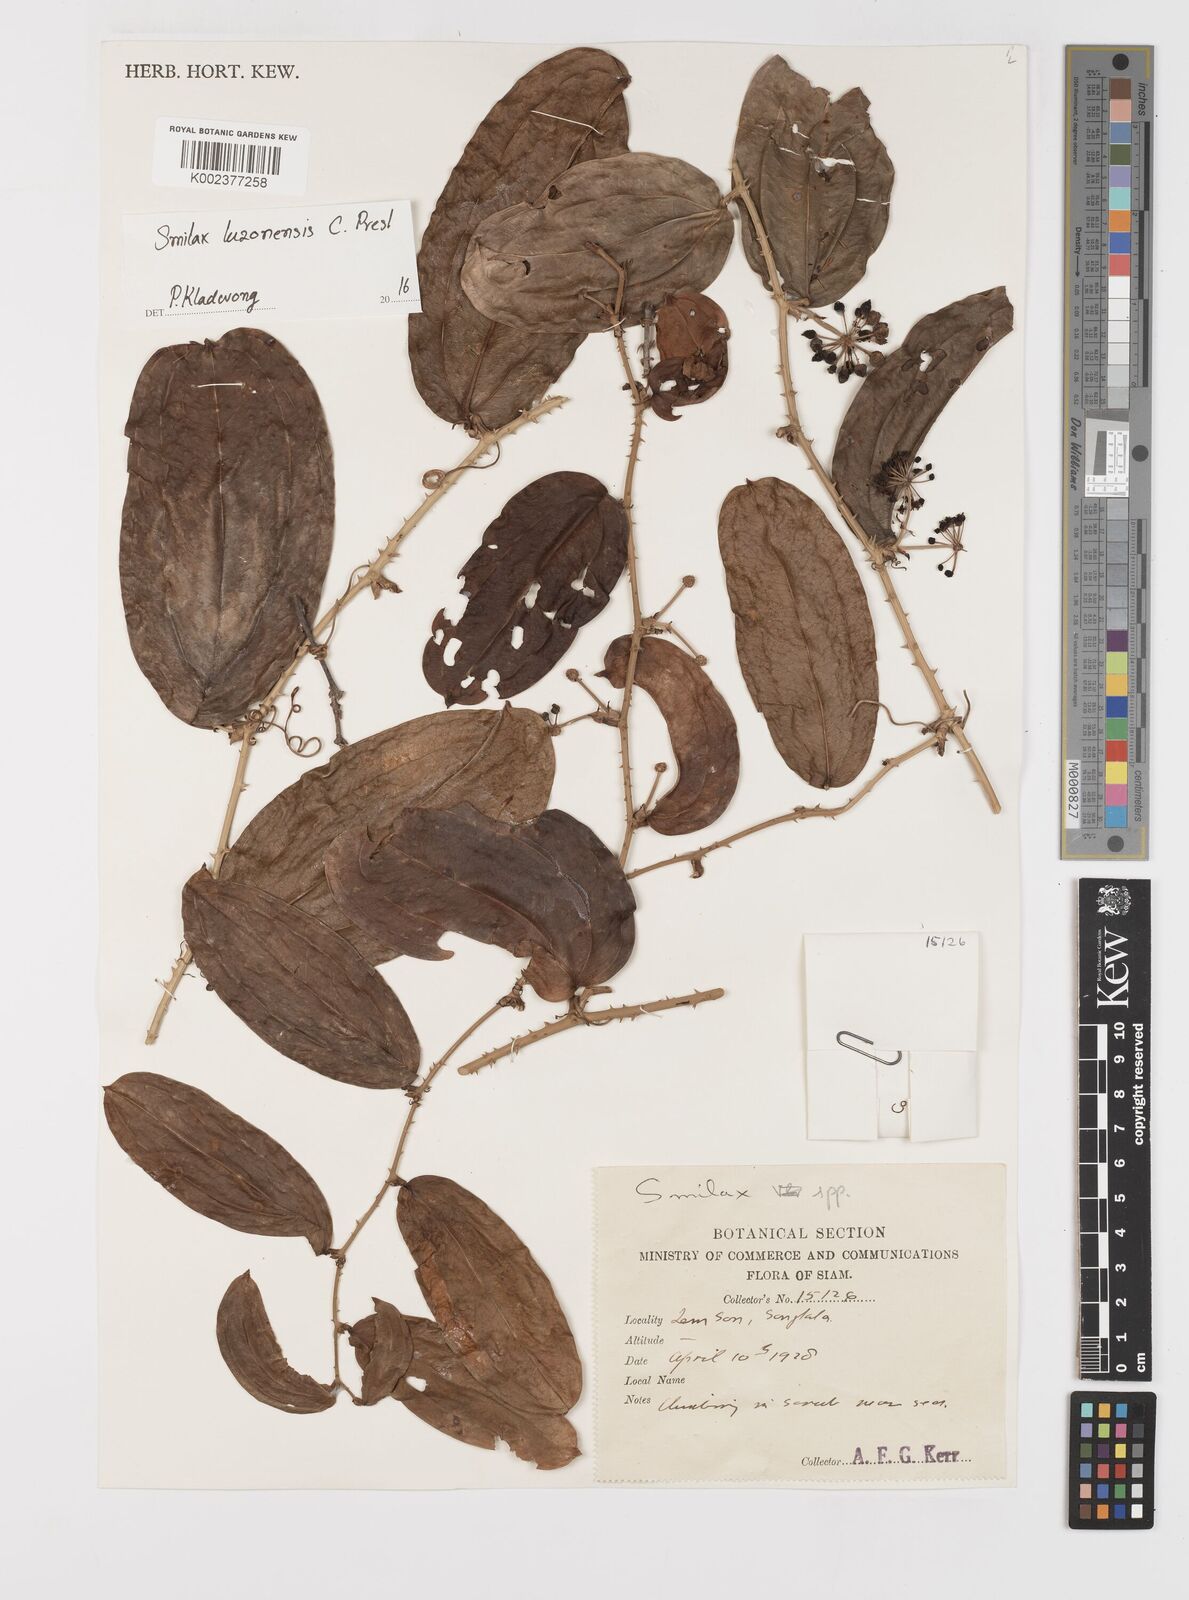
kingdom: Plantae
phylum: Tracheophyta
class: Liliopsida
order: Liliales
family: Smilacaceae
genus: Smilax
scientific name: Smilax luzonensis
